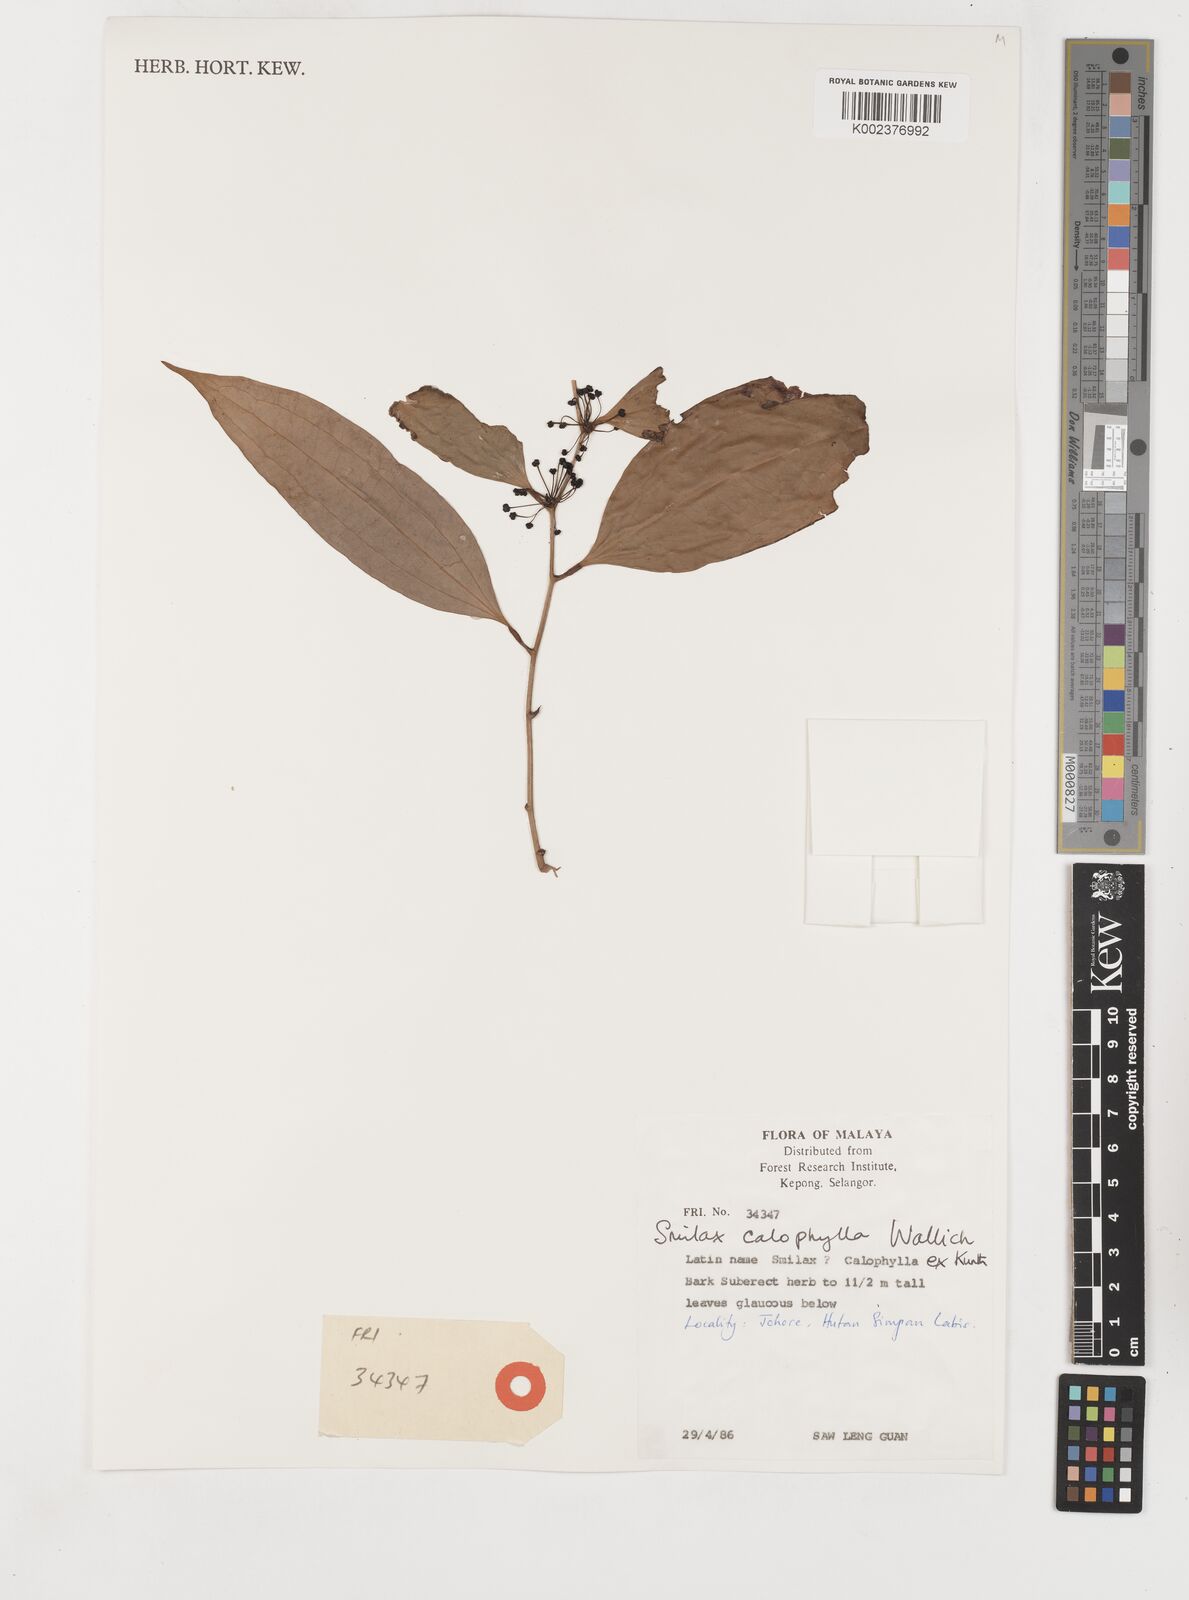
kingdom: Plantae
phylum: Tracheophyta
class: Liliopsida
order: Liliales
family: Smilacaceae
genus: Smilax
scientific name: Smilax calophylla
